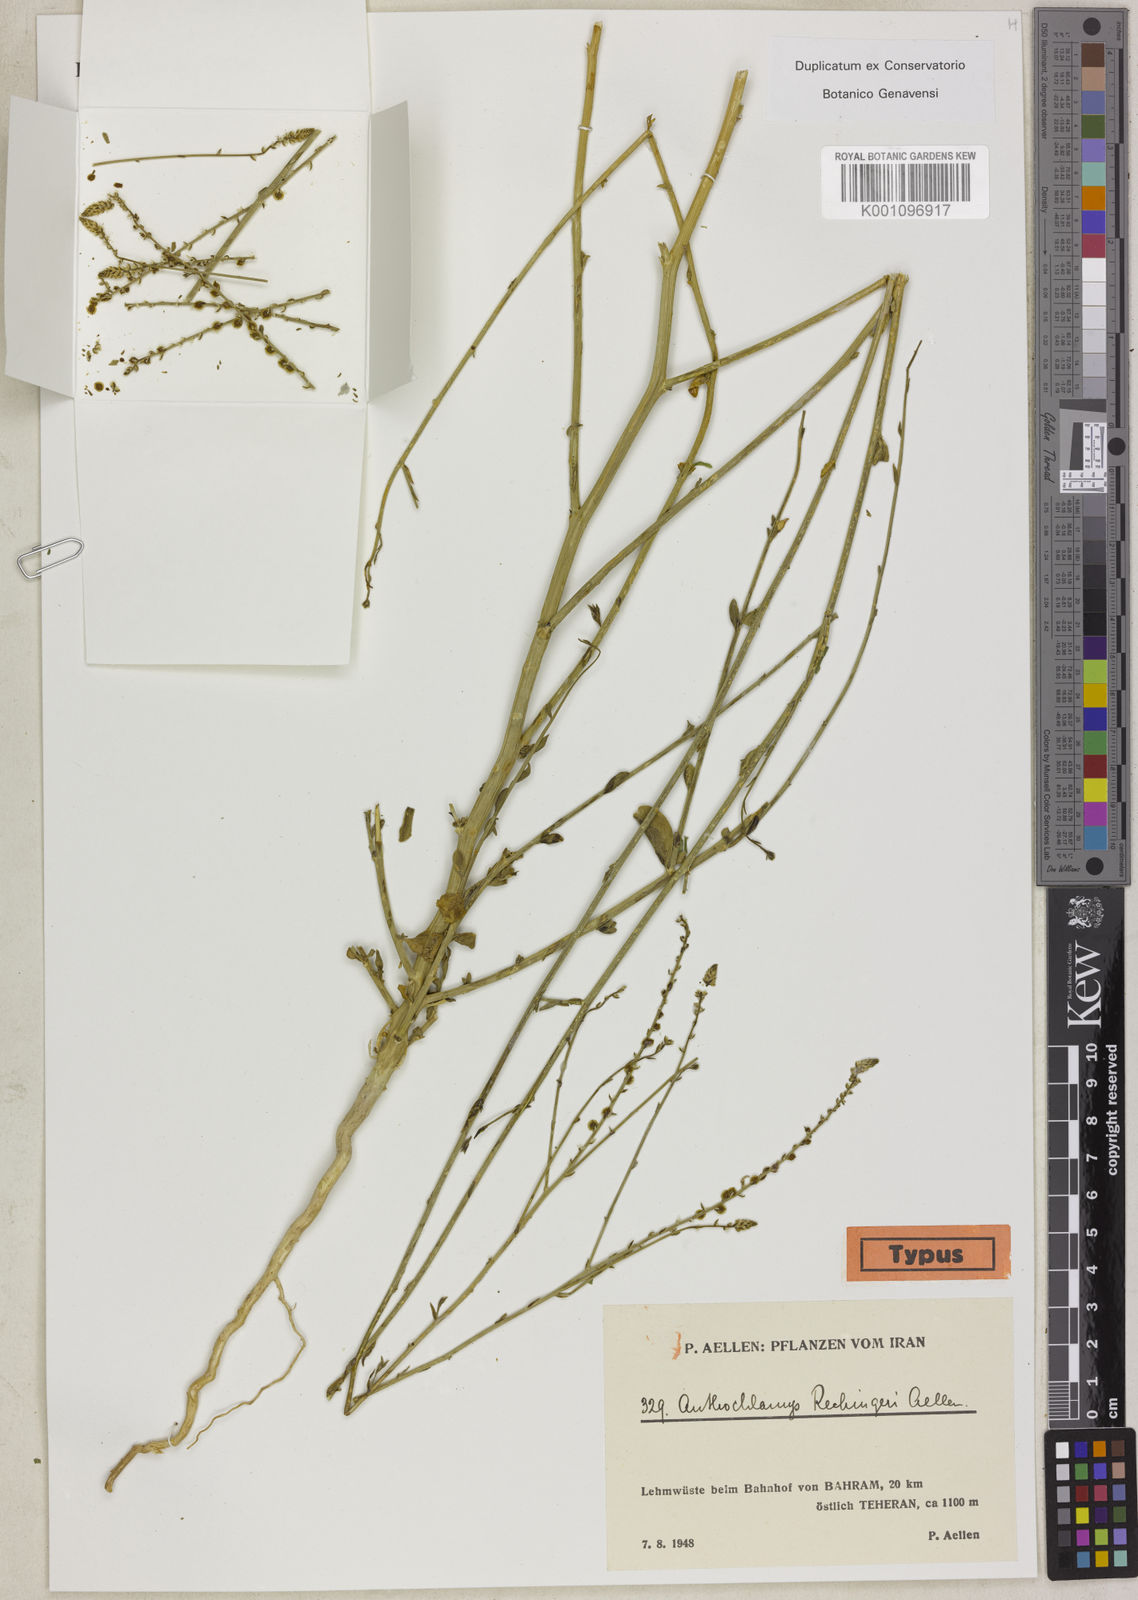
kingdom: Plantae
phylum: Tracheophyta
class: Magnoliopsida
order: Caryophyllales
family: Amaranthaceae
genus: Anthochlamys
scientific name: Anthochlamys polygaloides
